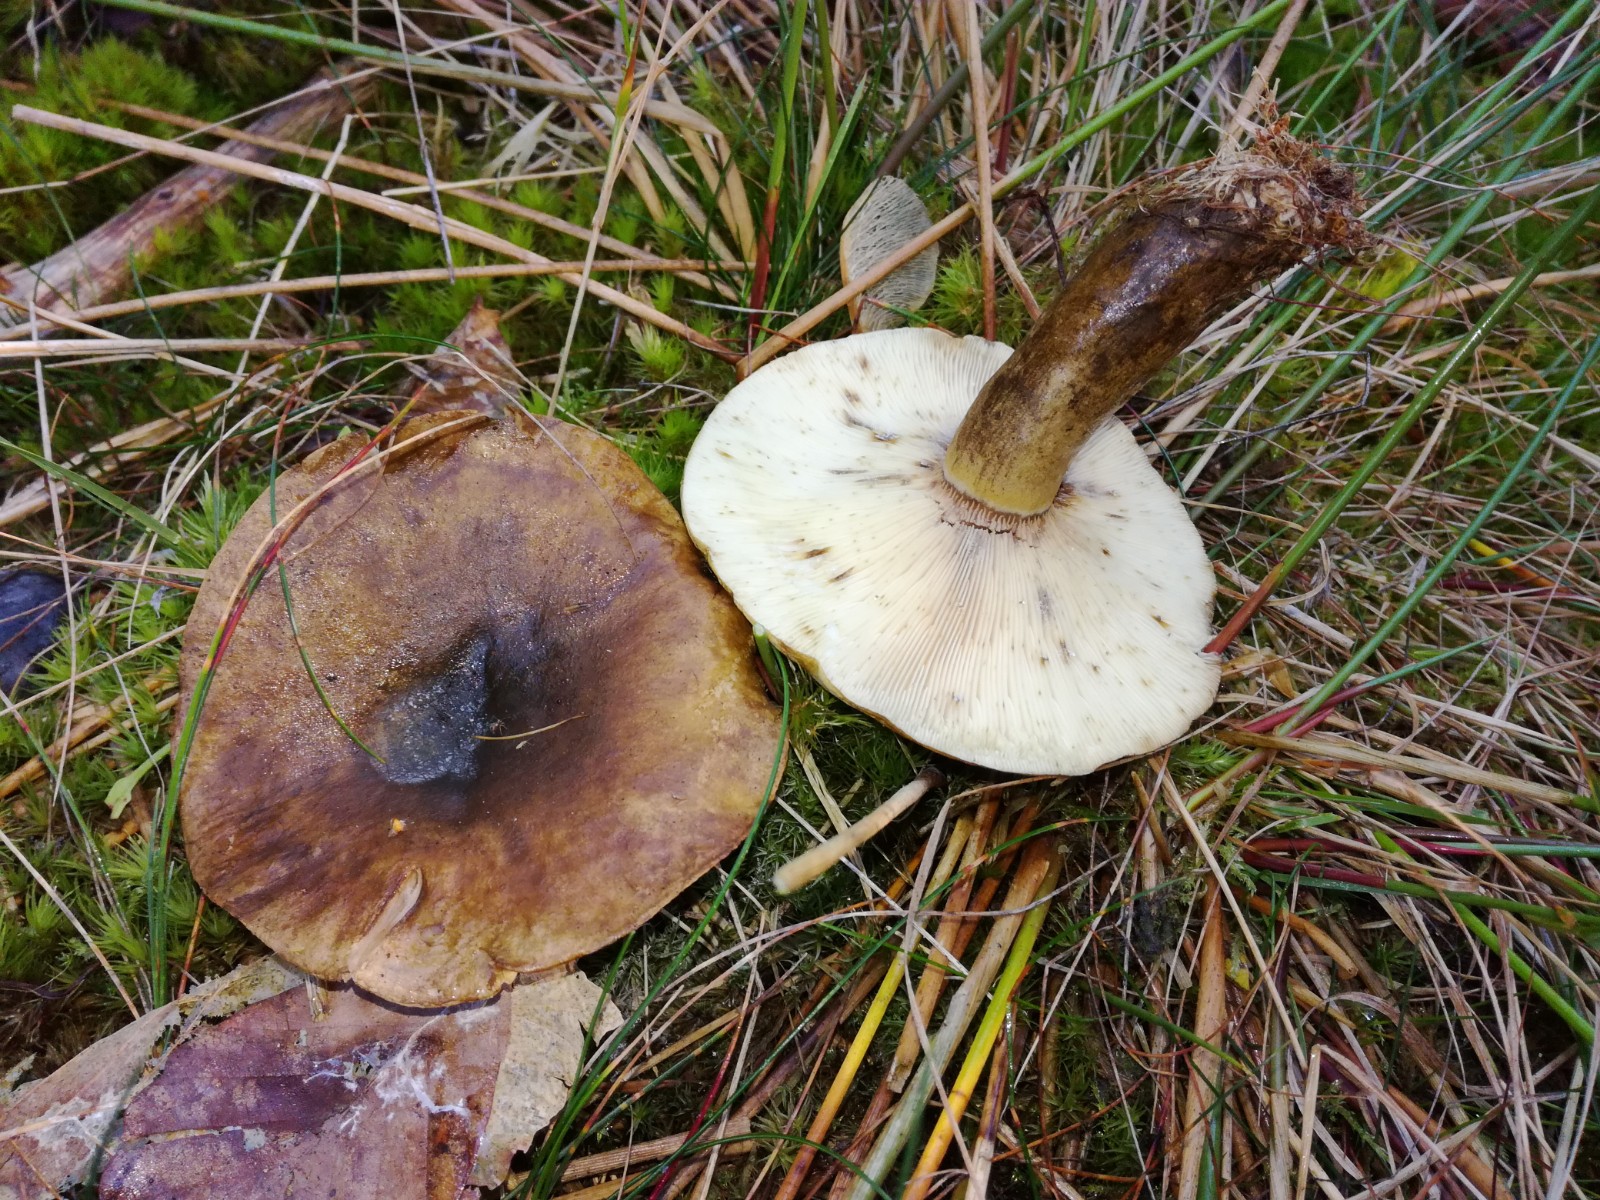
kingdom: Fungi
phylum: Basidiomycota
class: Agaricomycetes
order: Russulales
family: Russulaceae
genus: Lactarius
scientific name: Lactarius necator
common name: manddraber-mælkehat
